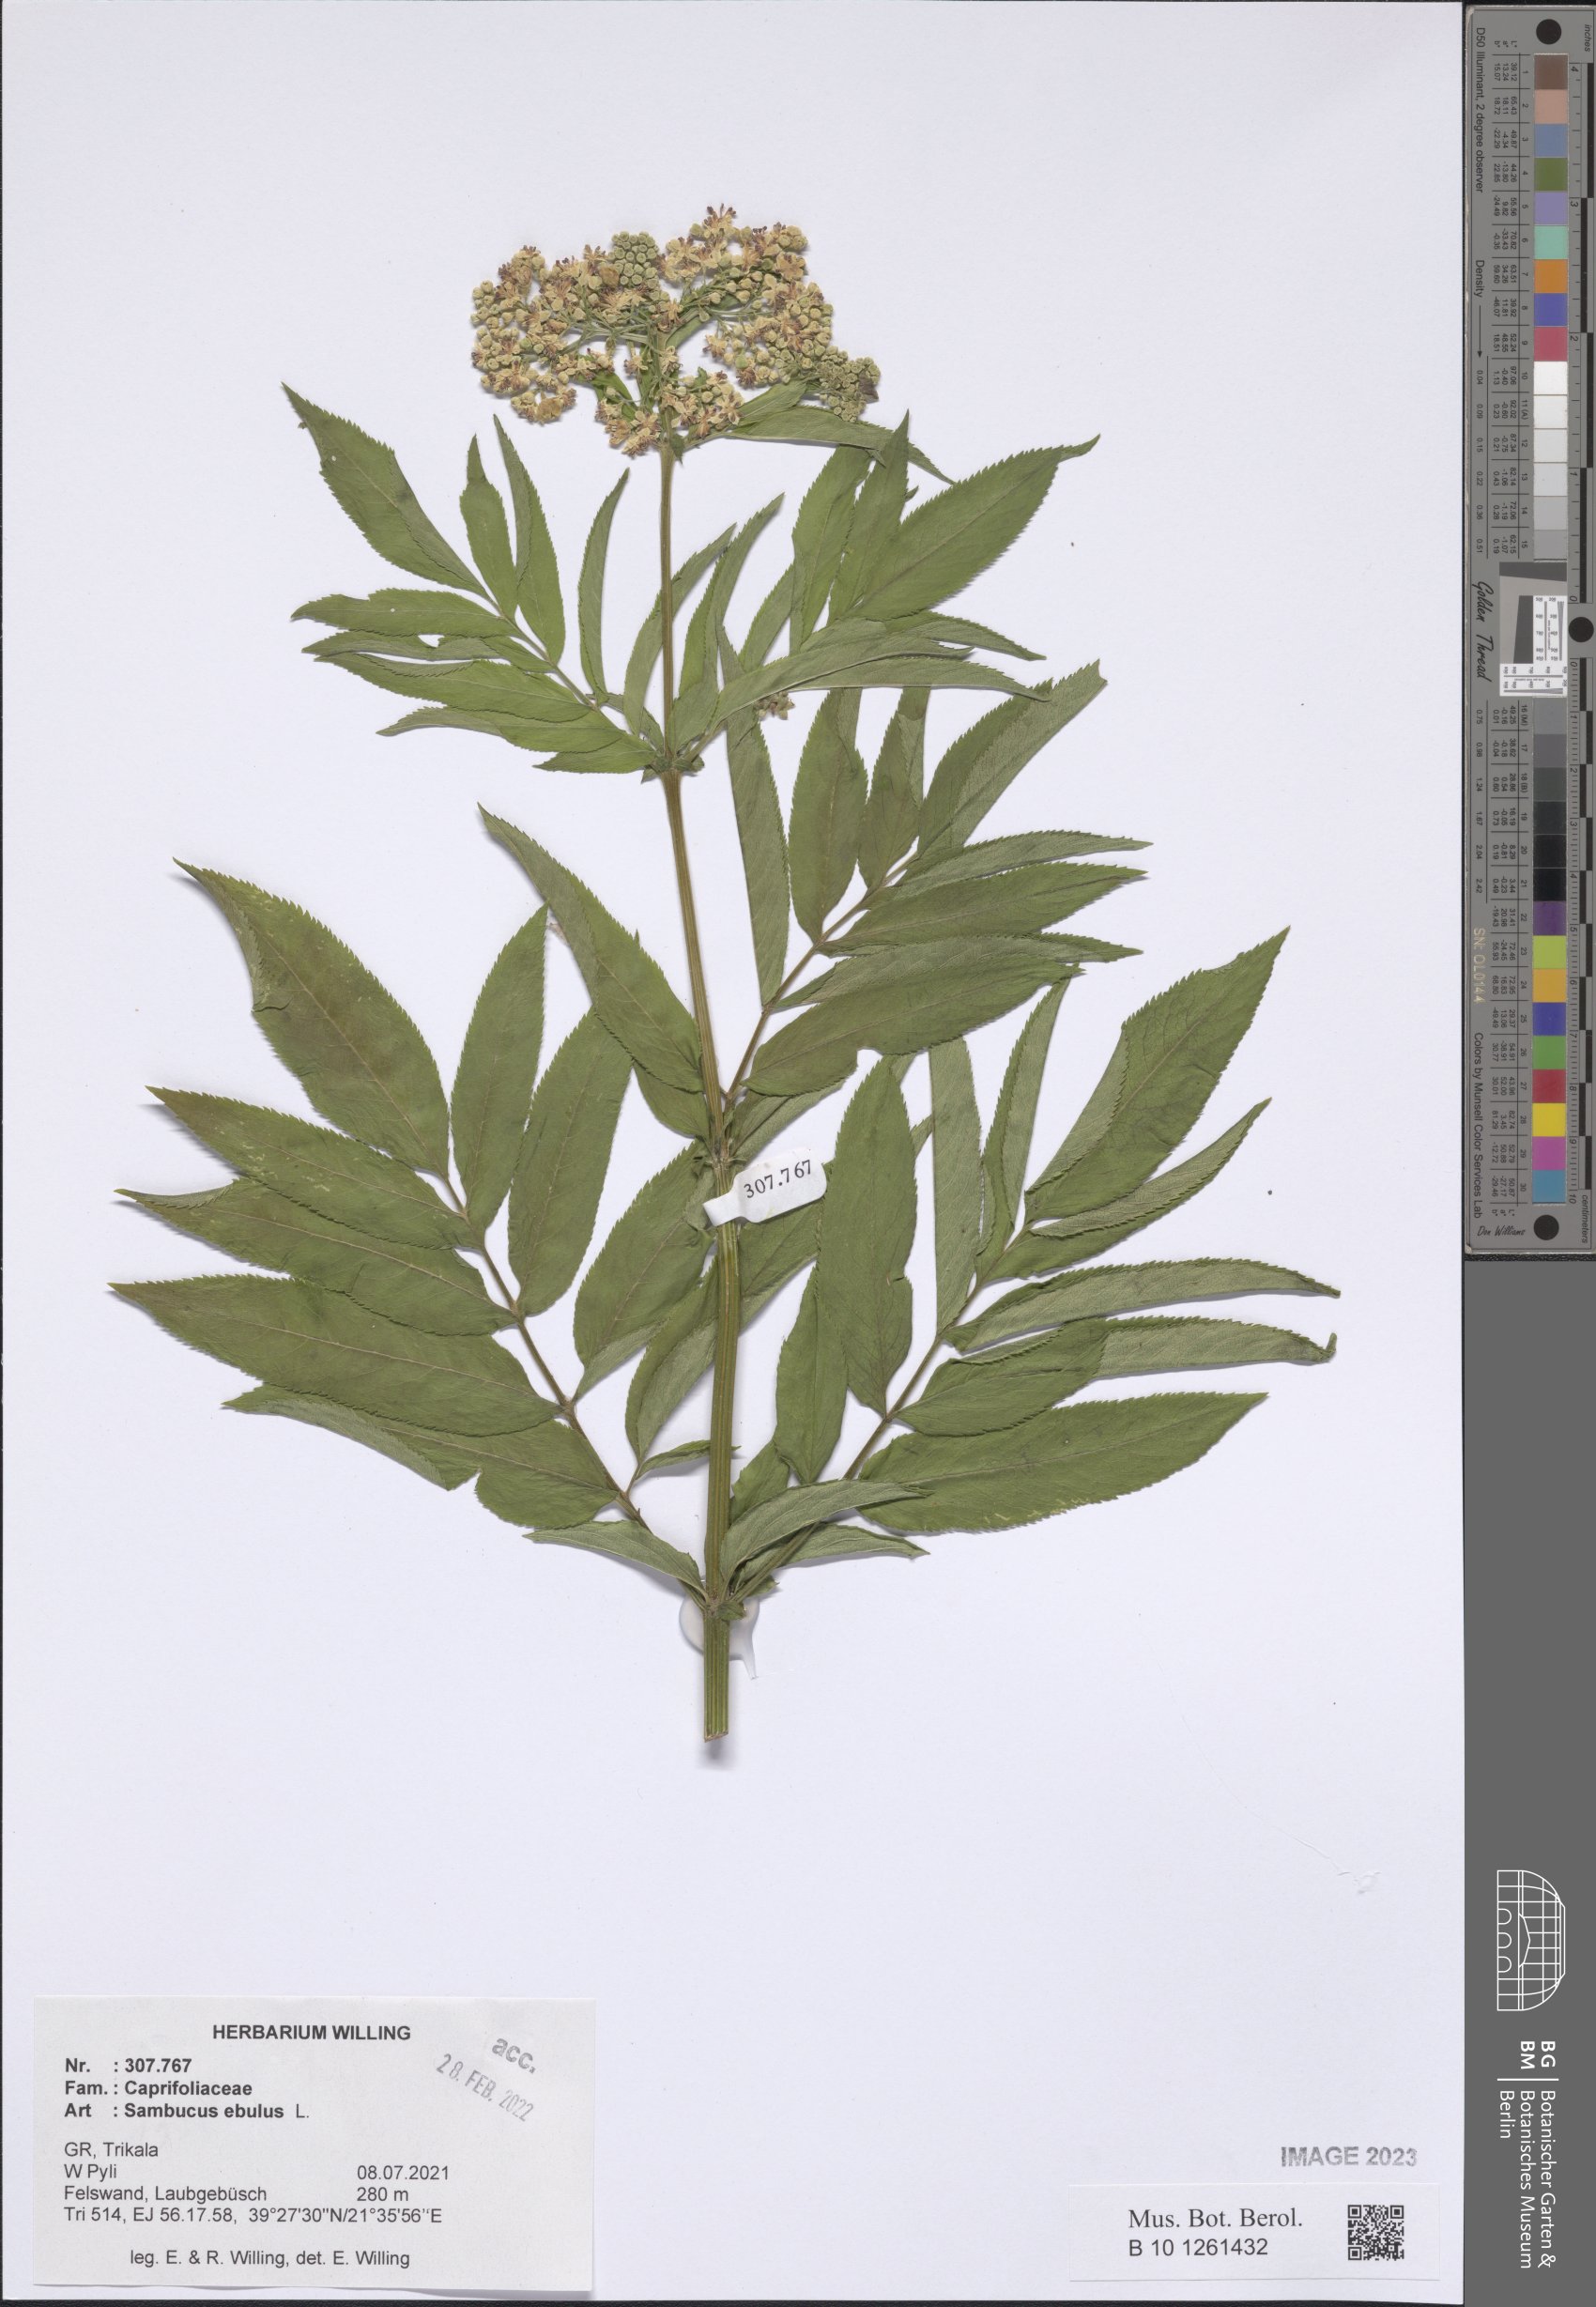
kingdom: Plantae
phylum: Tracheophyta
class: Magnoliopsida
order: Dipsacales
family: Viburnaceae
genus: Sambucus
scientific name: Sambucus ebulus
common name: Dwarf elder
